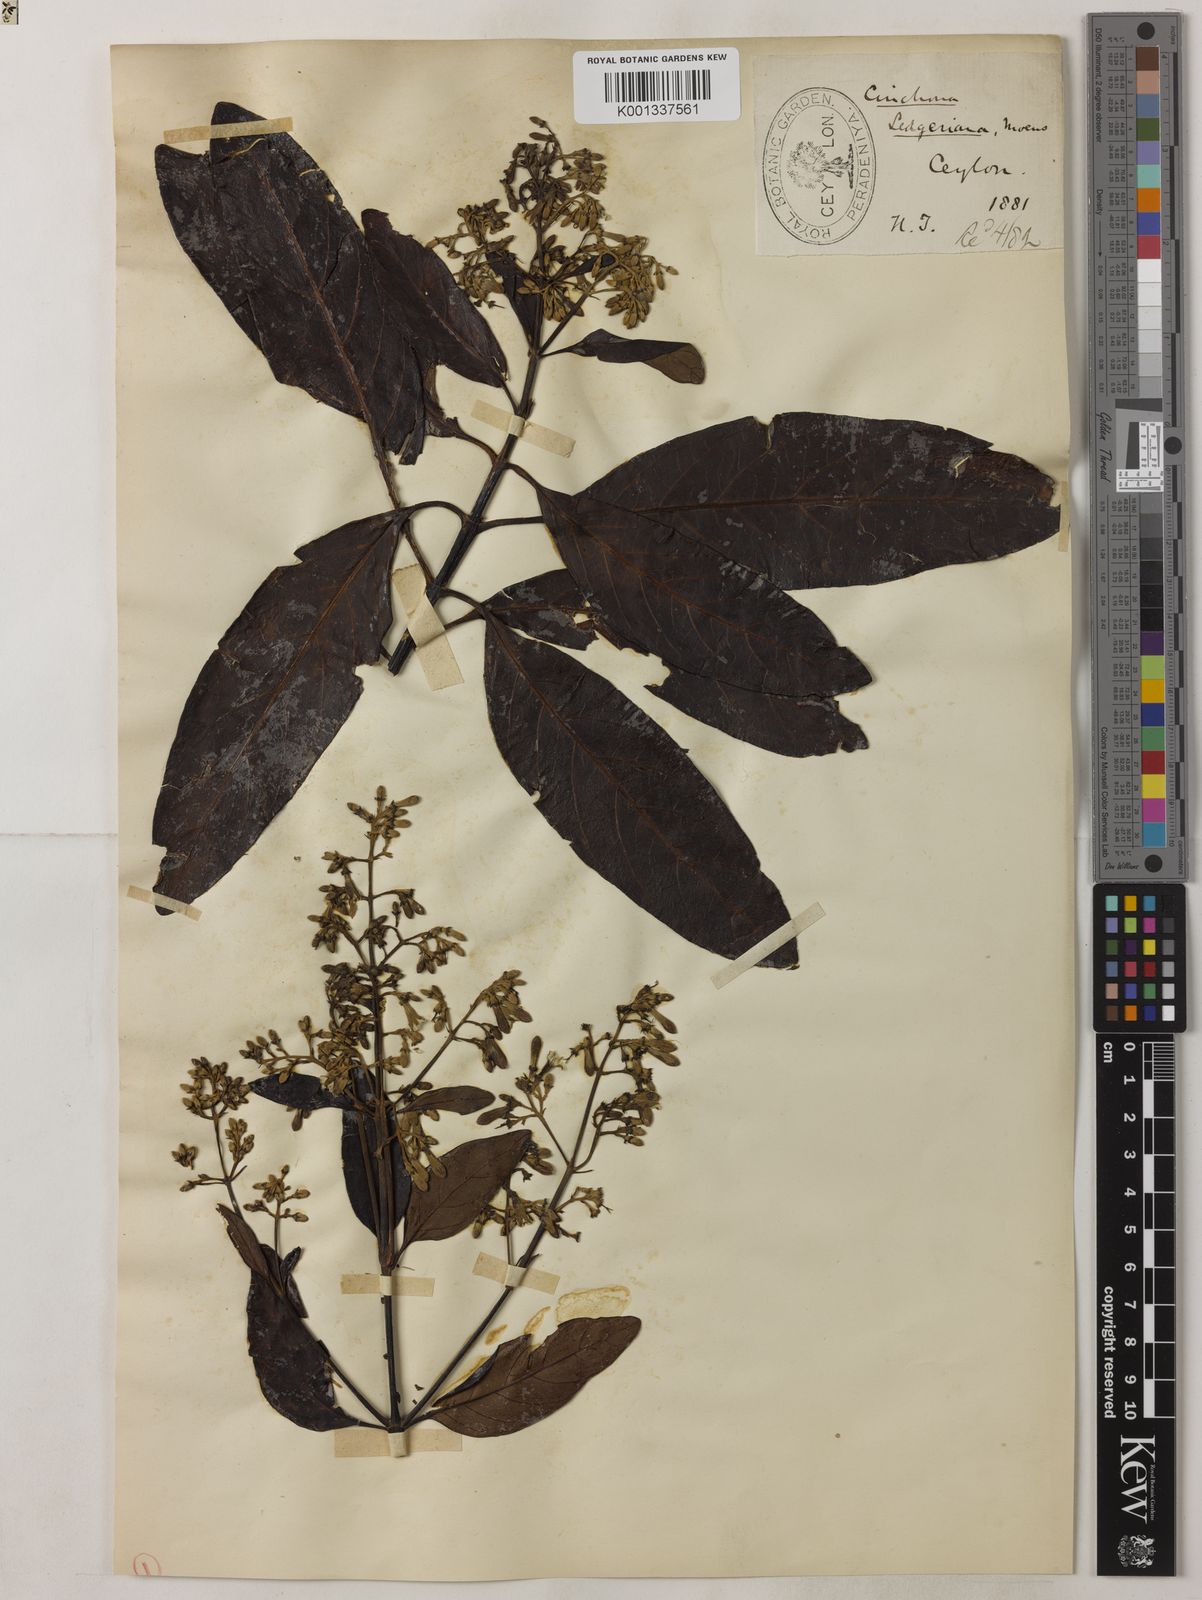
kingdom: Plantae
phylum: Tracheophyta
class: Magnoliopsida
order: Gentianales
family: Rubiaceae
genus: Cinchona
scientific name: Cinchona calisaya
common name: Ledgerbark
